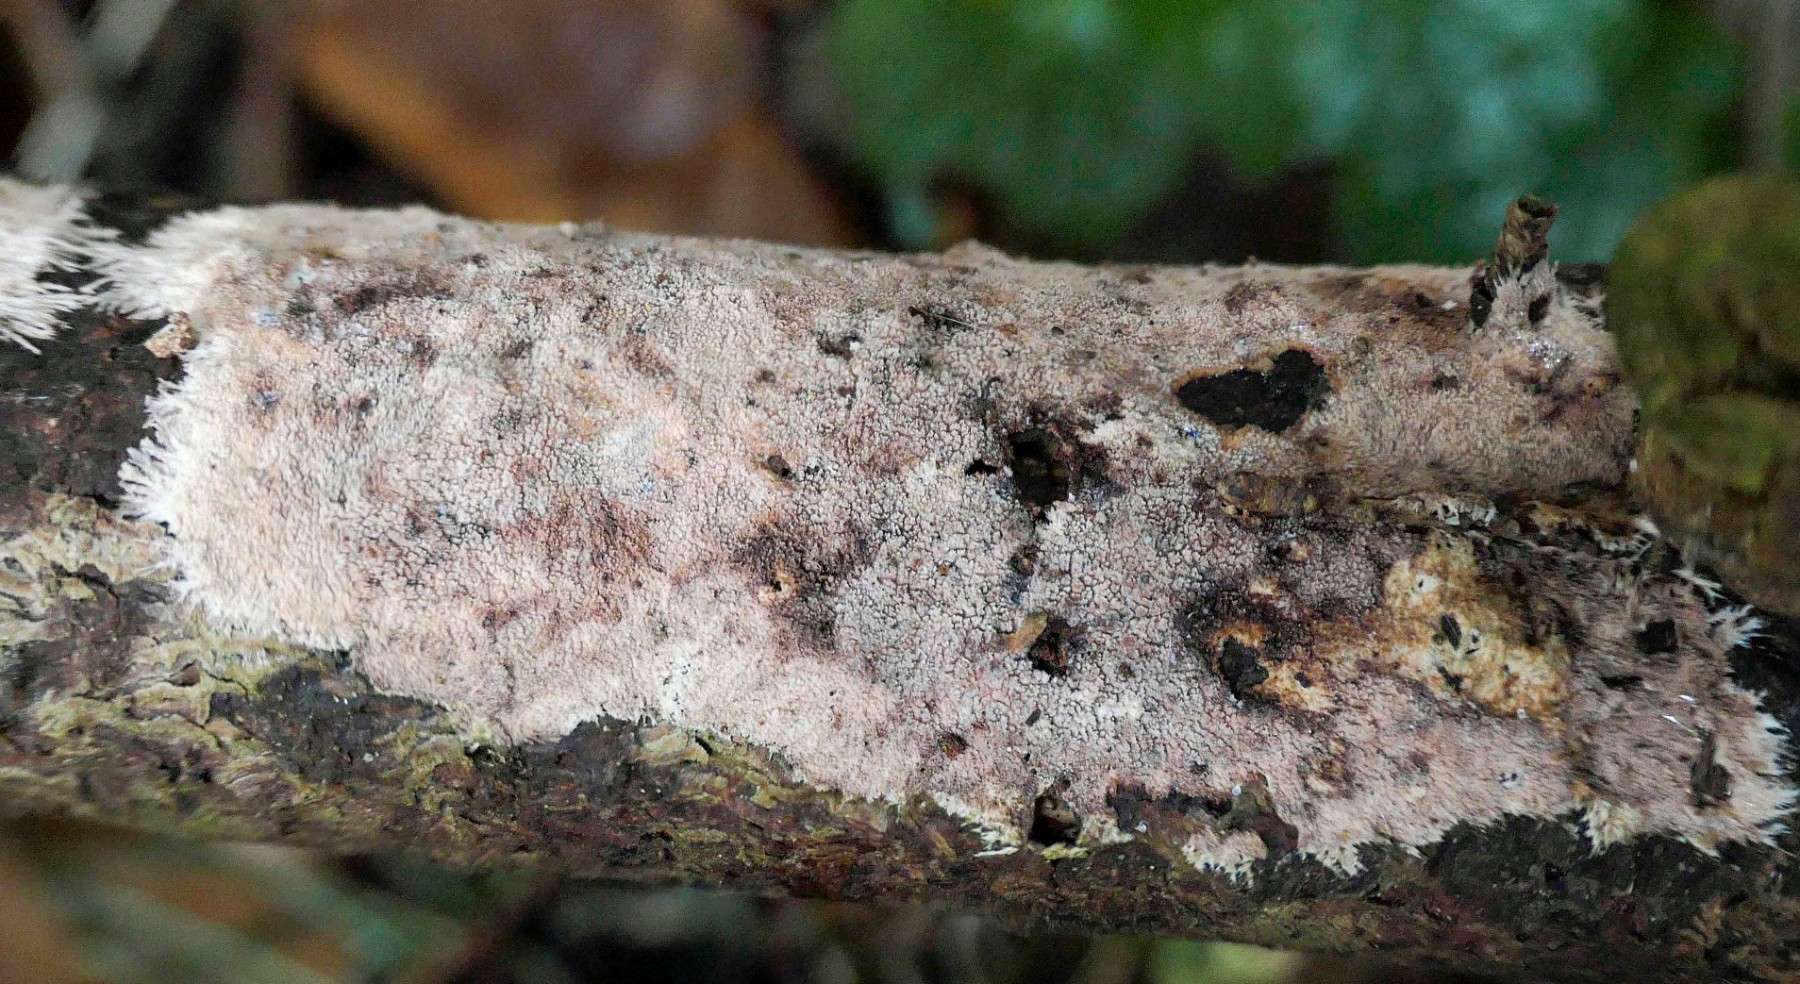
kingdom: Fungi
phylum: Basidiomycota
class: Agaricomycetes
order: Polyporales
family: Steccherinaceae
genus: Steccherinum
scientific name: Steccherinum fimbriatum
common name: trådet skønpig
